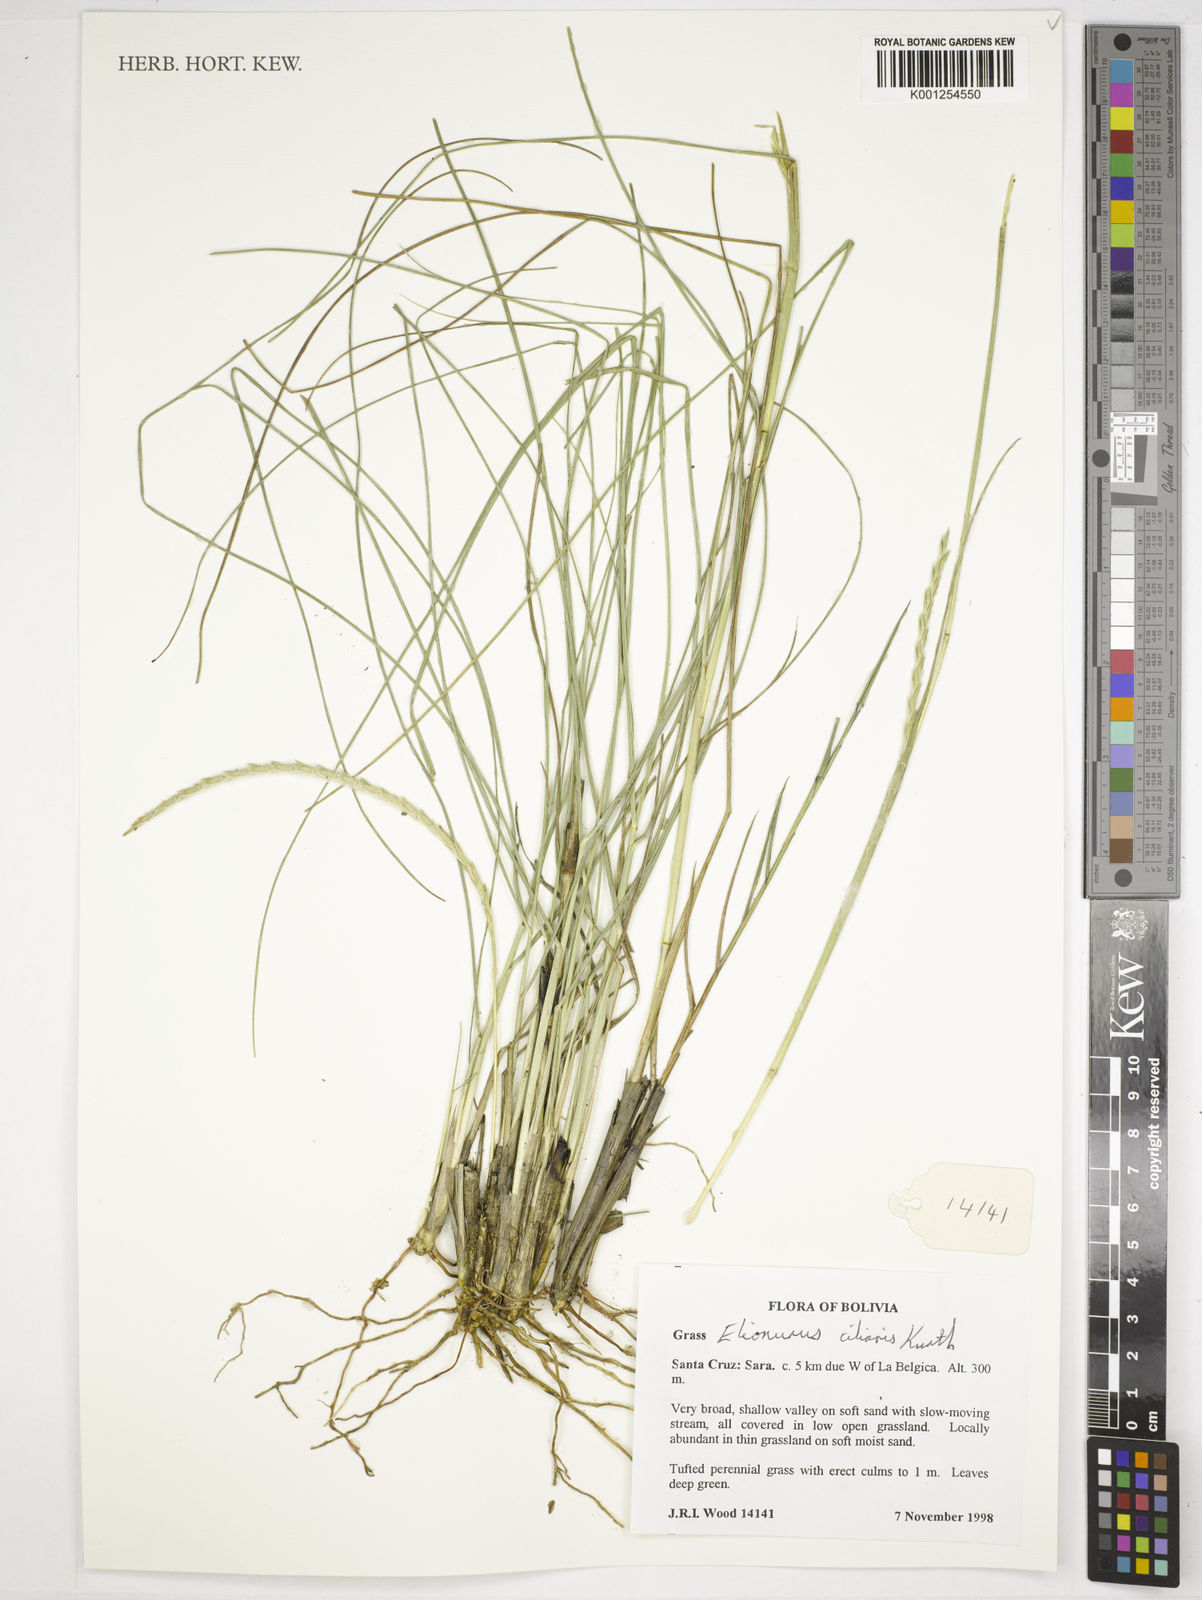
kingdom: Plantae
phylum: Tracheophyta
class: Liliopsida
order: Poales
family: Poaceae
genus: Elionurus
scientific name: Elionurus ciliaris
